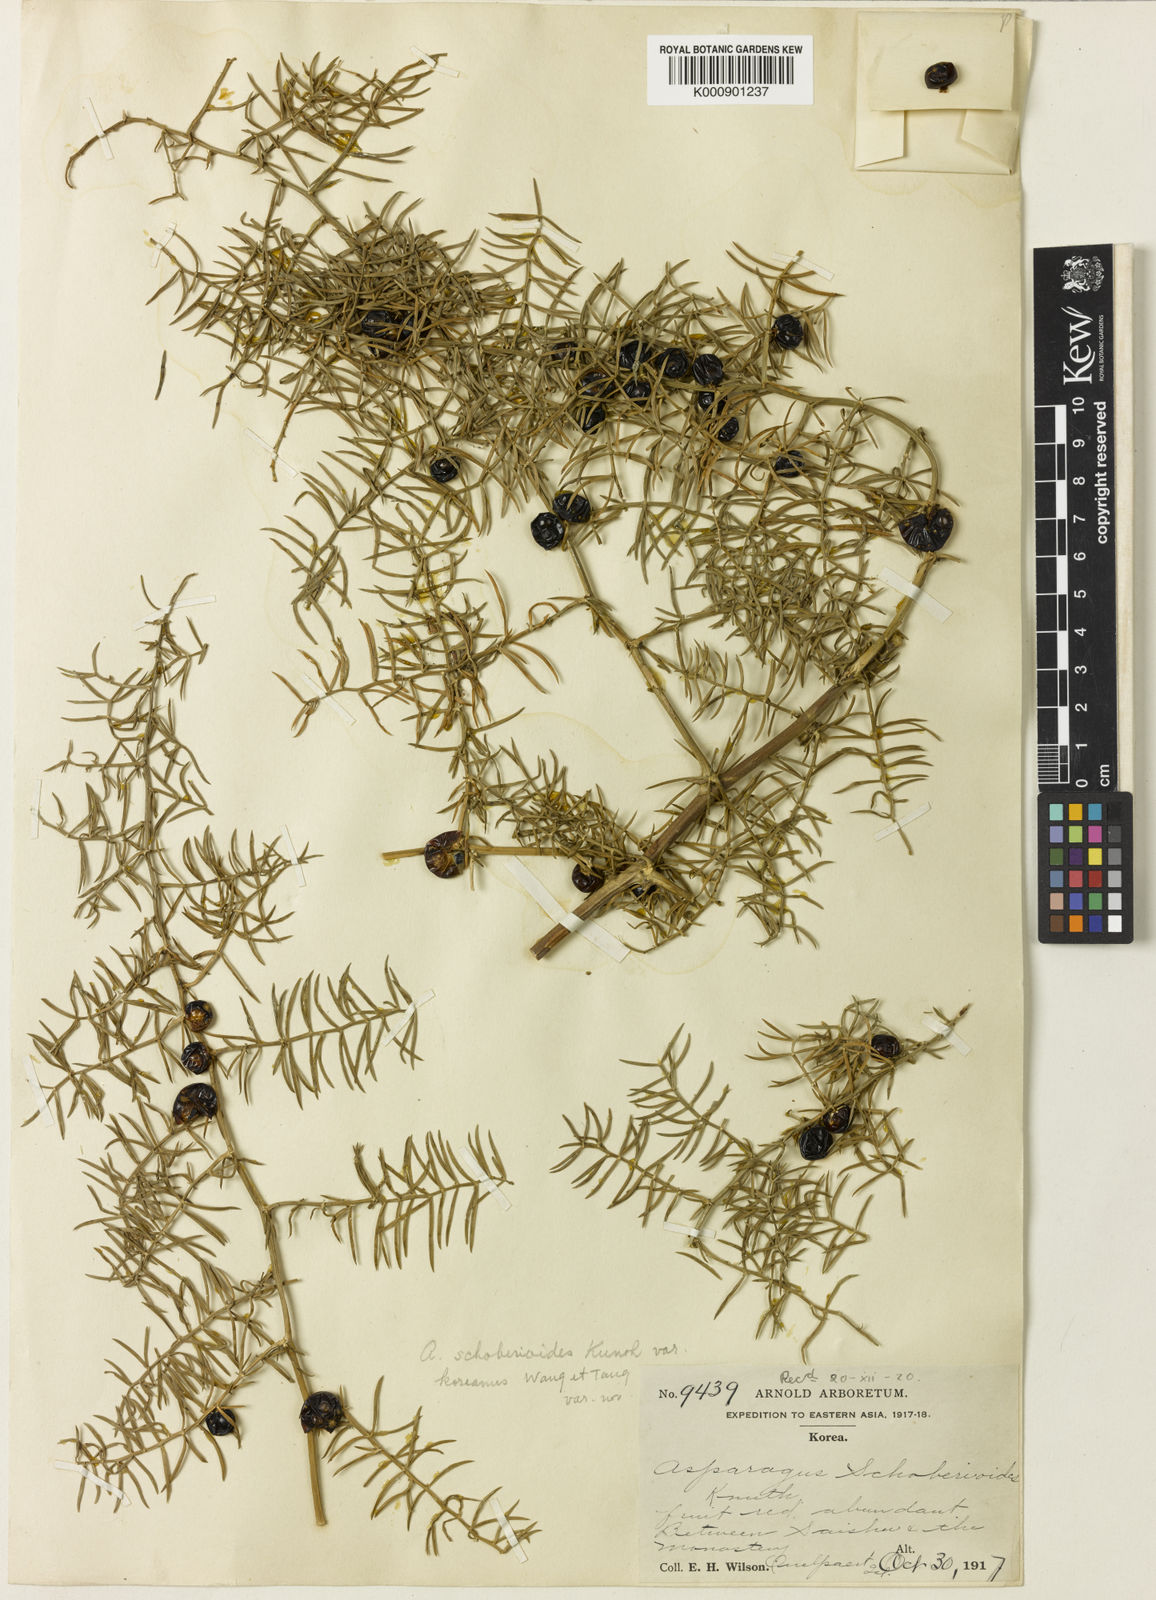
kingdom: Plantae
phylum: Tracheophyta
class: Liliopsida
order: Asparagales
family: Asparagaceae
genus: Asparagus
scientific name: Asparagus schoberioides
